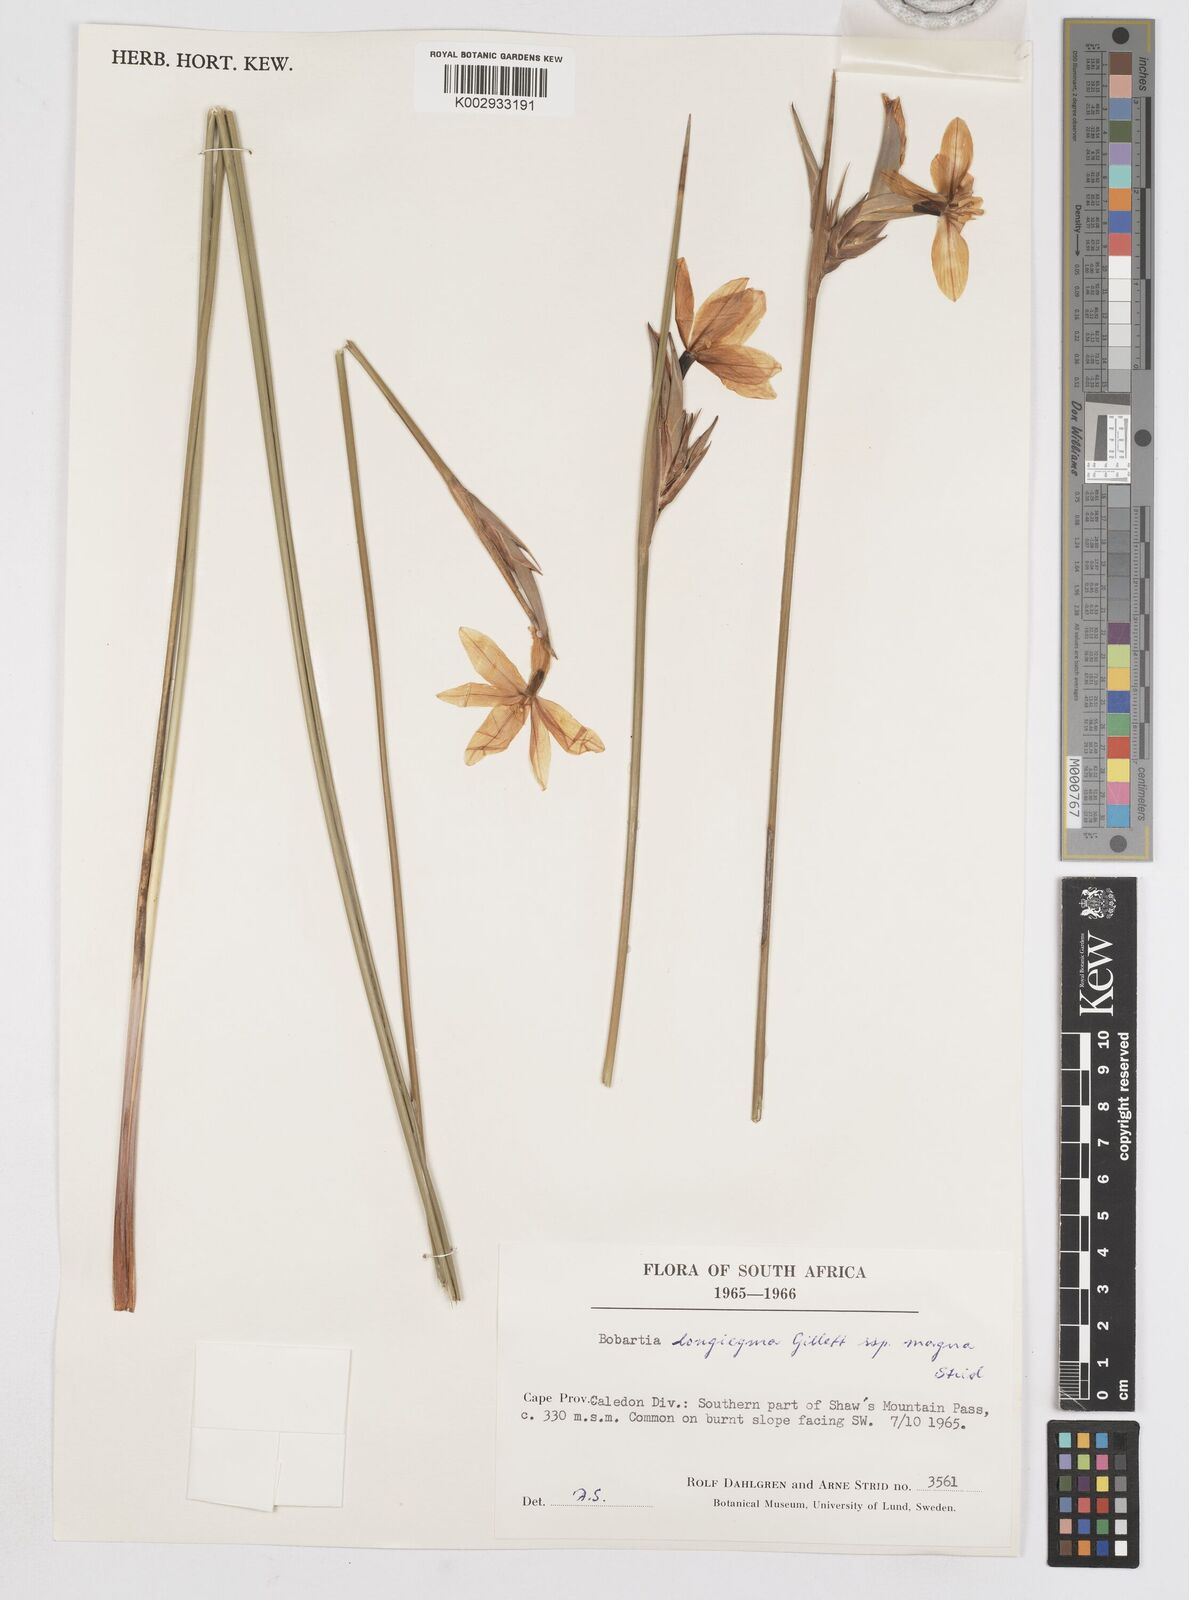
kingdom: Plantae
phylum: Tracheophyta
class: Liliopsida
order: Asparagales
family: Iridaceae
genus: Bobartia
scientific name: Bobartia longicyma
